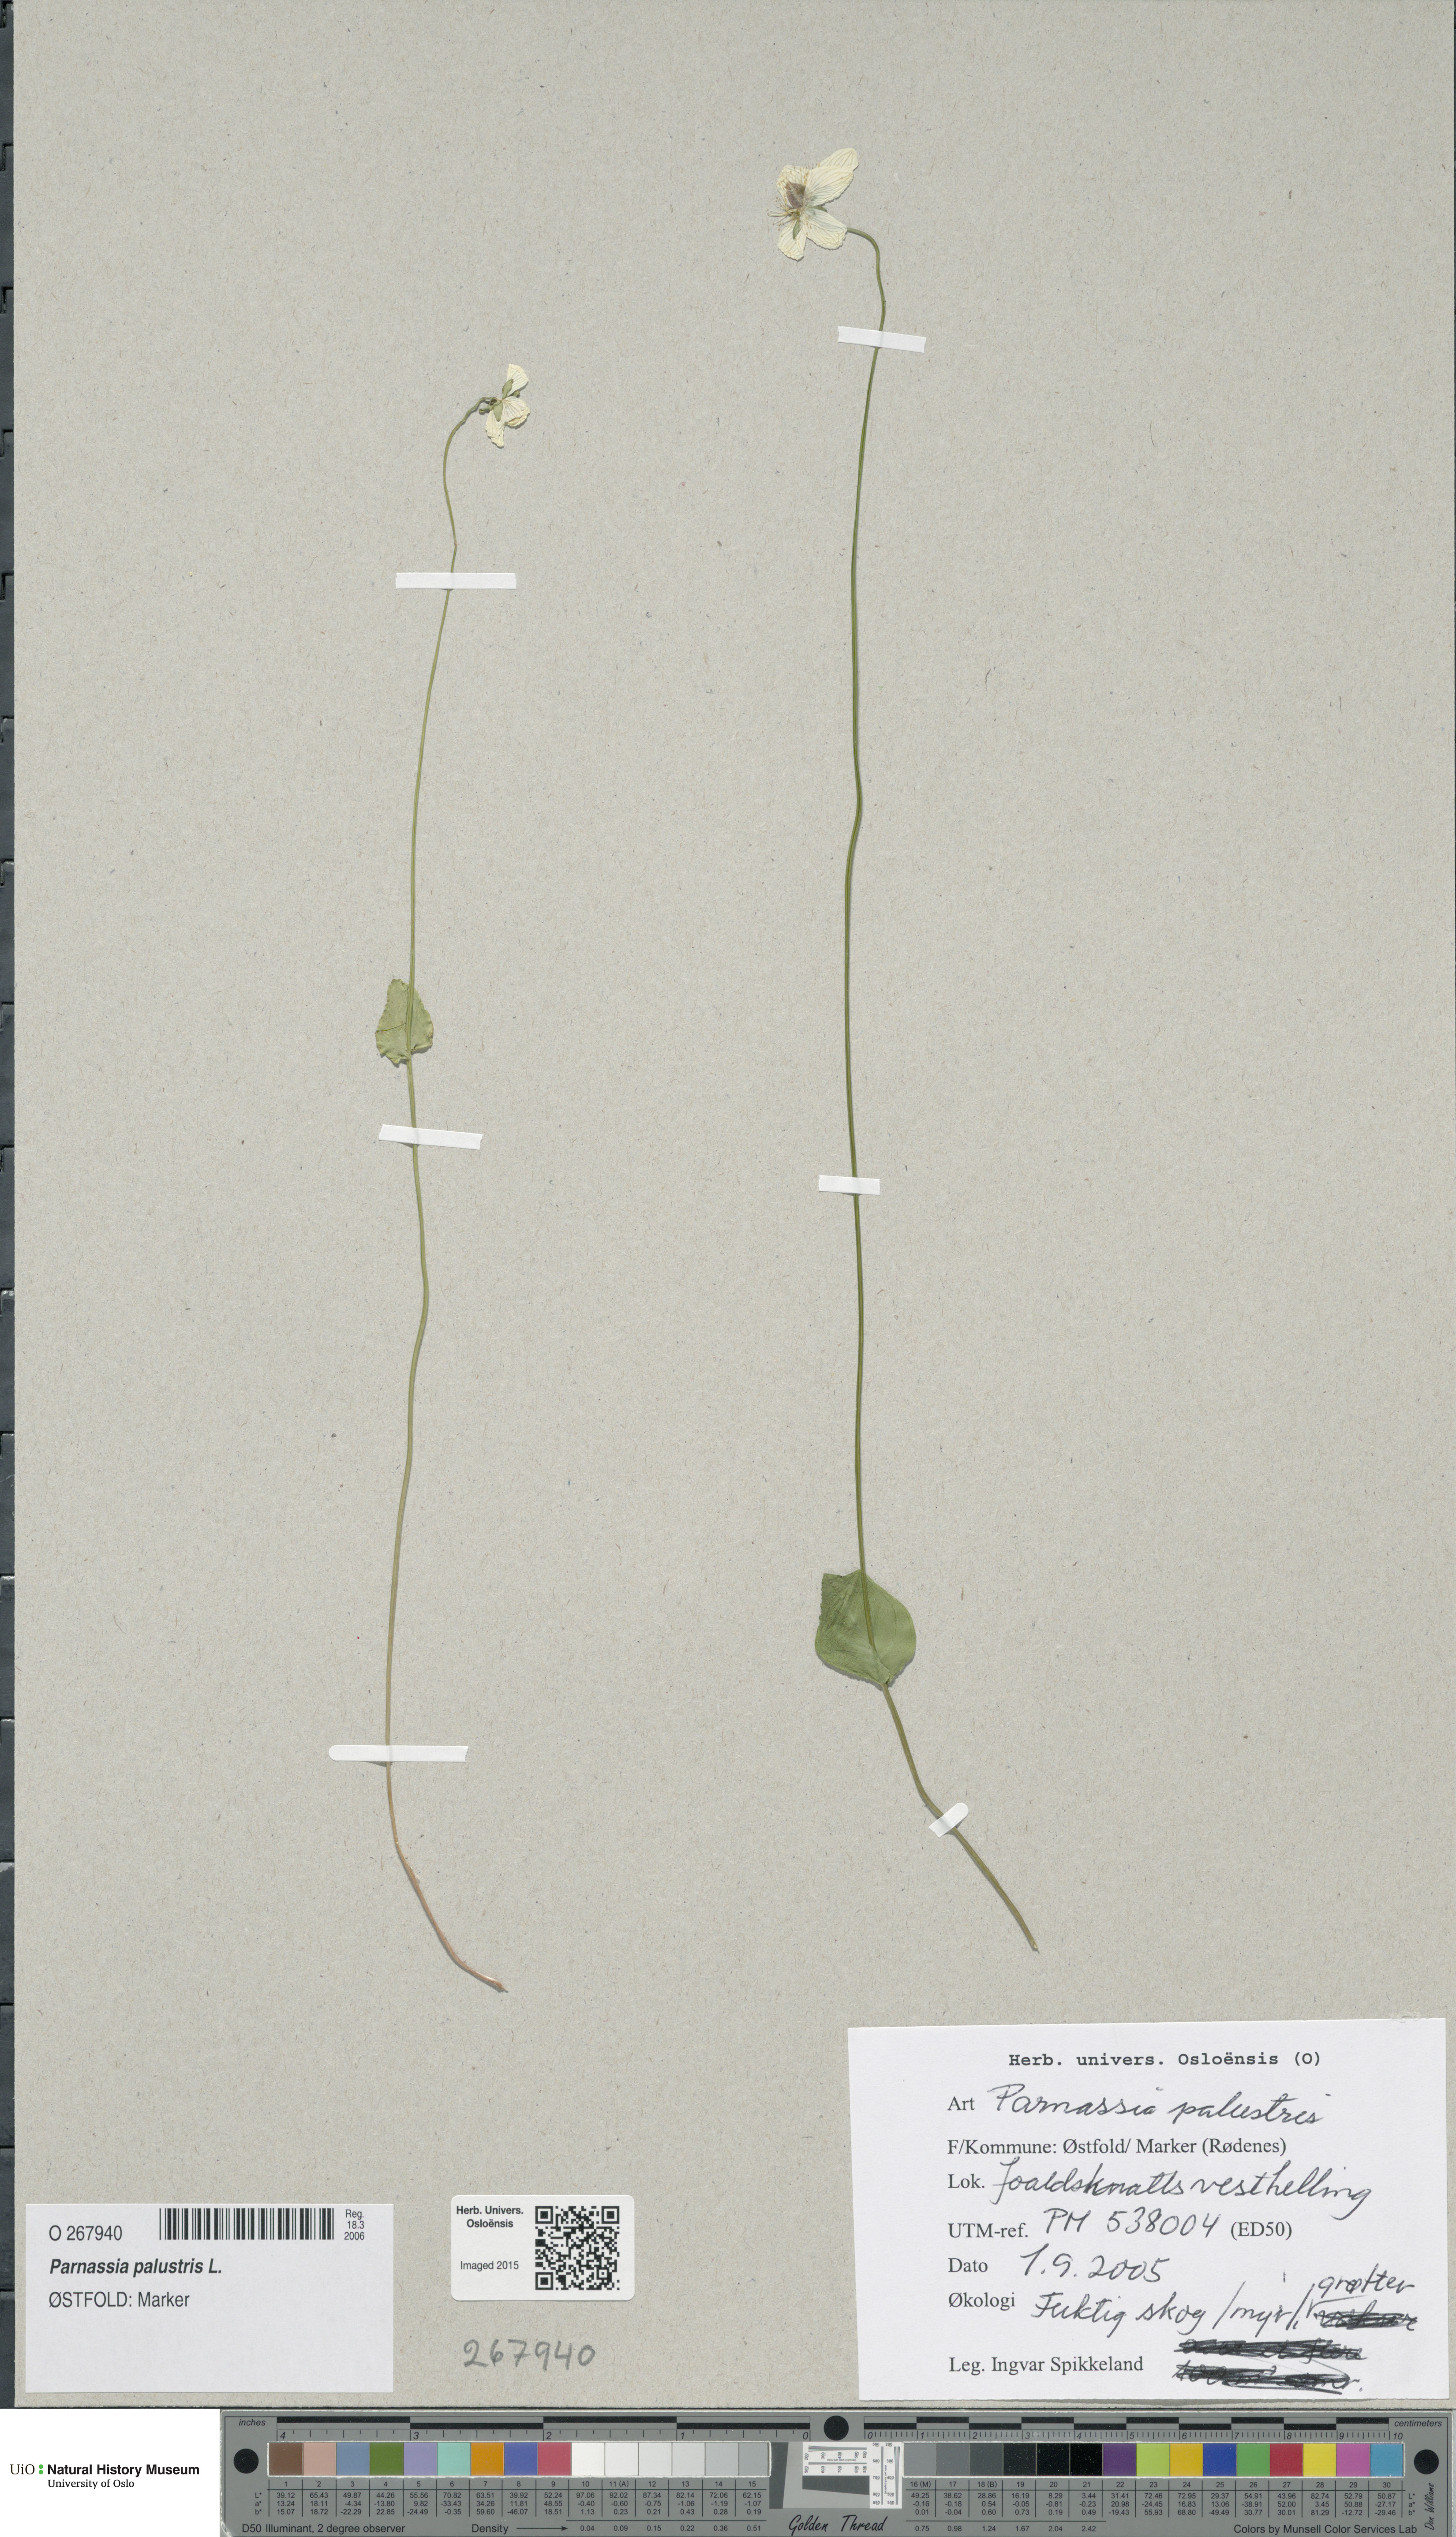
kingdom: Plantae
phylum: Tracheophyta
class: Magnoliopsida
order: Celastrales
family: Parnassiaceae
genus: Parnassia
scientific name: Parnassia palustris
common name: Grass-of-parnassus
